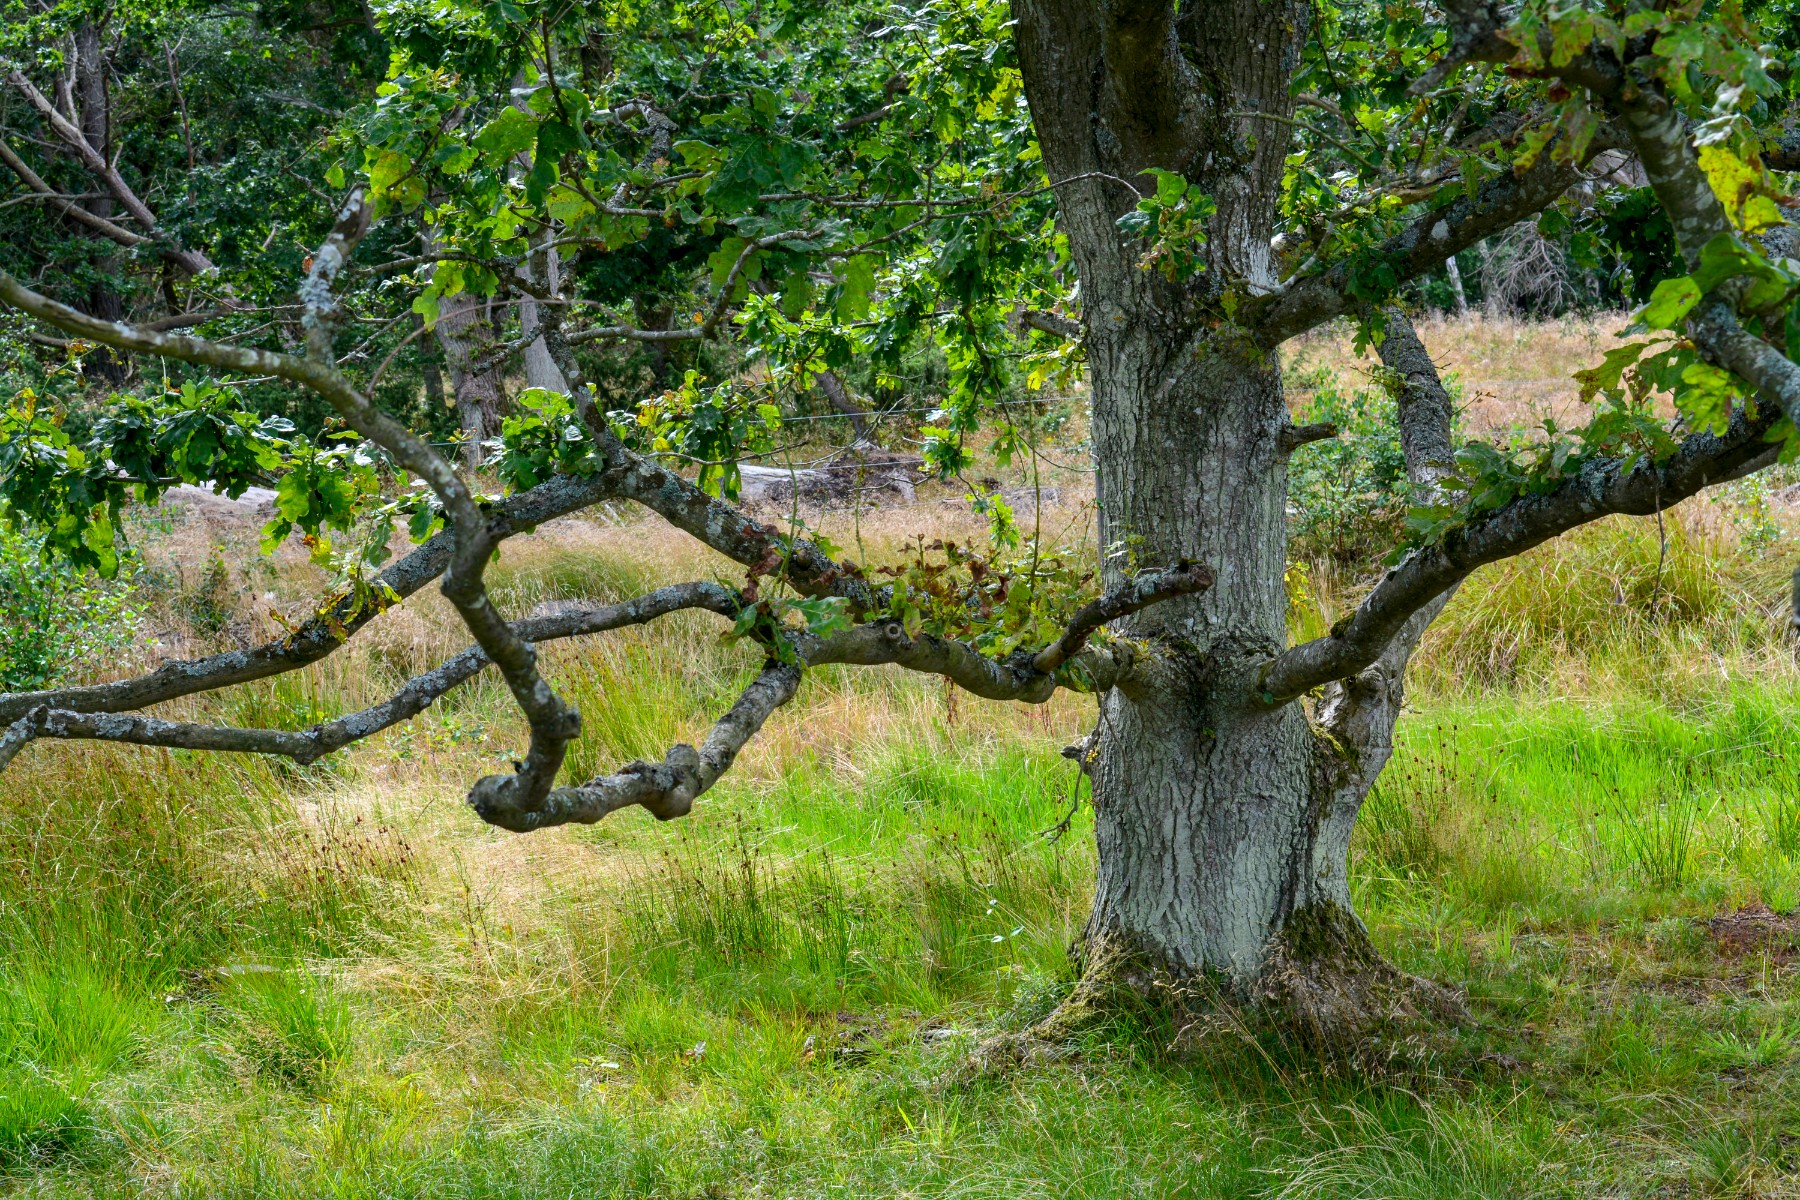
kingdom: Fungi
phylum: Basidiomycota
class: Agaricomycetes
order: Agaricales
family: Amanitaceae
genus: Amanita
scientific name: Amanita fulva
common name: brun kam-fluesvamp
